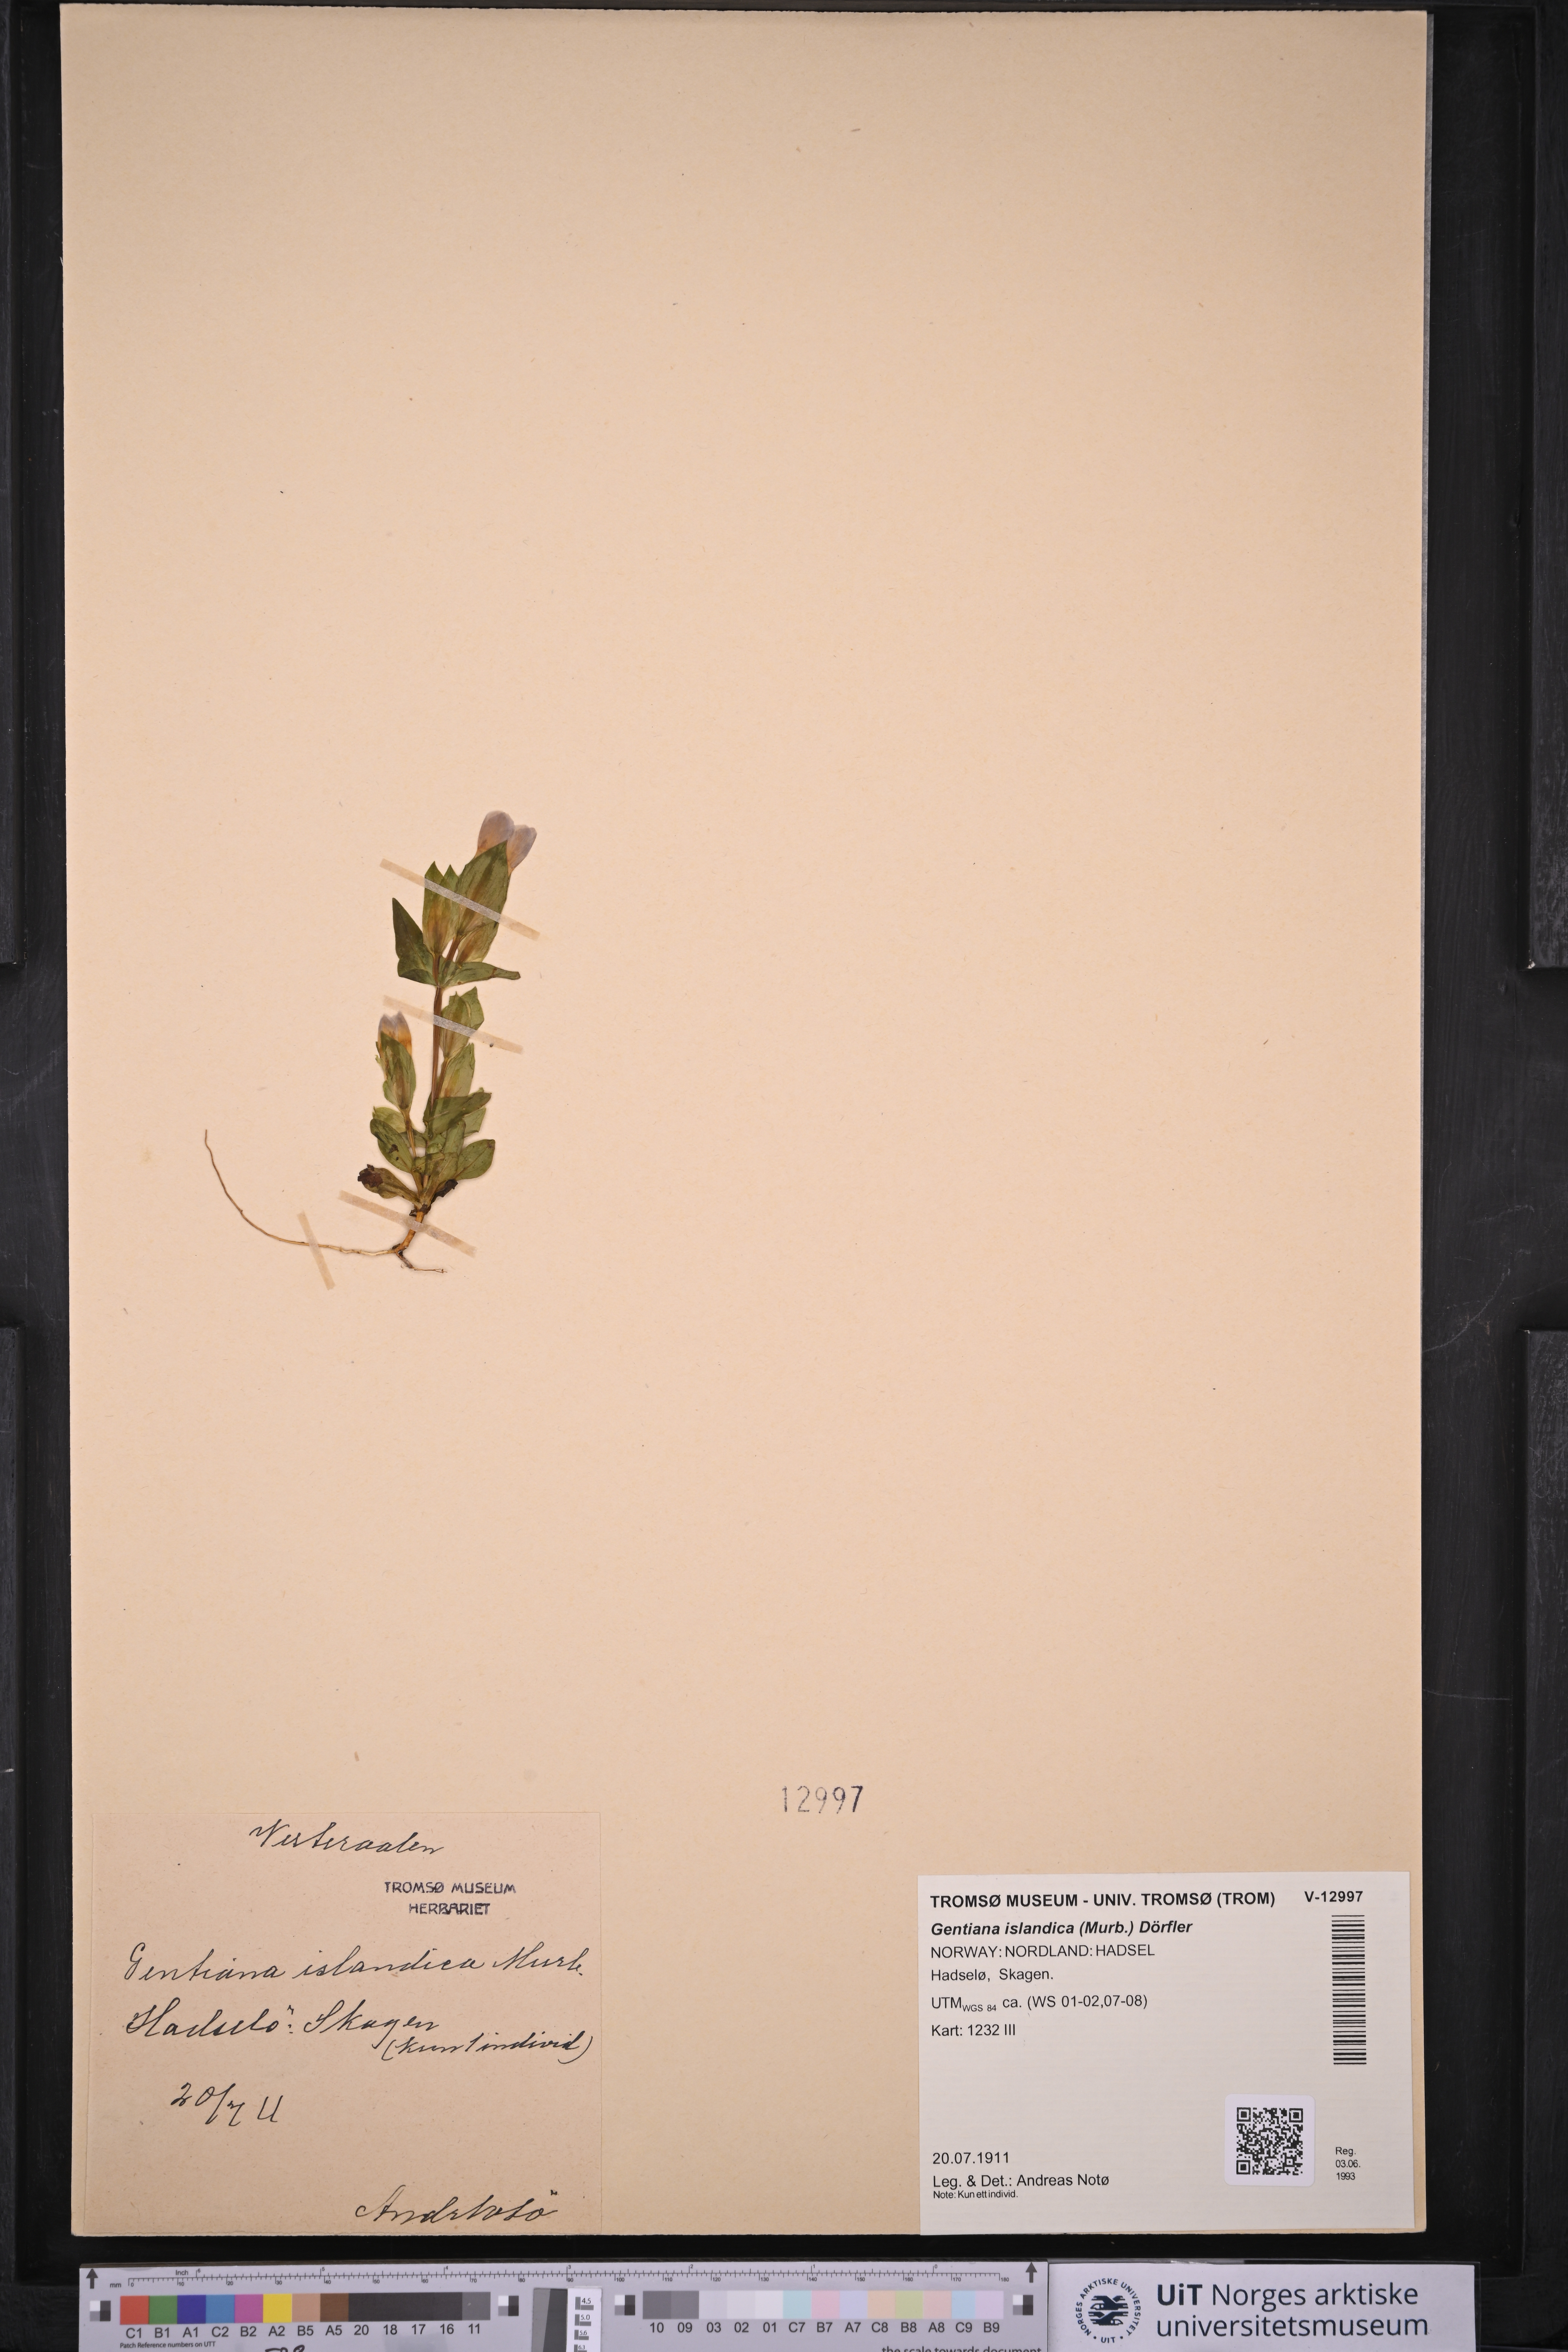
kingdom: Plantae
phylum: Tracheophyta
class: Magnoliopsida
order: Gentianales
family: Gentianaceae
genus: Gentianella
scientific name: Gentianella campestris
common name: Field gentian
